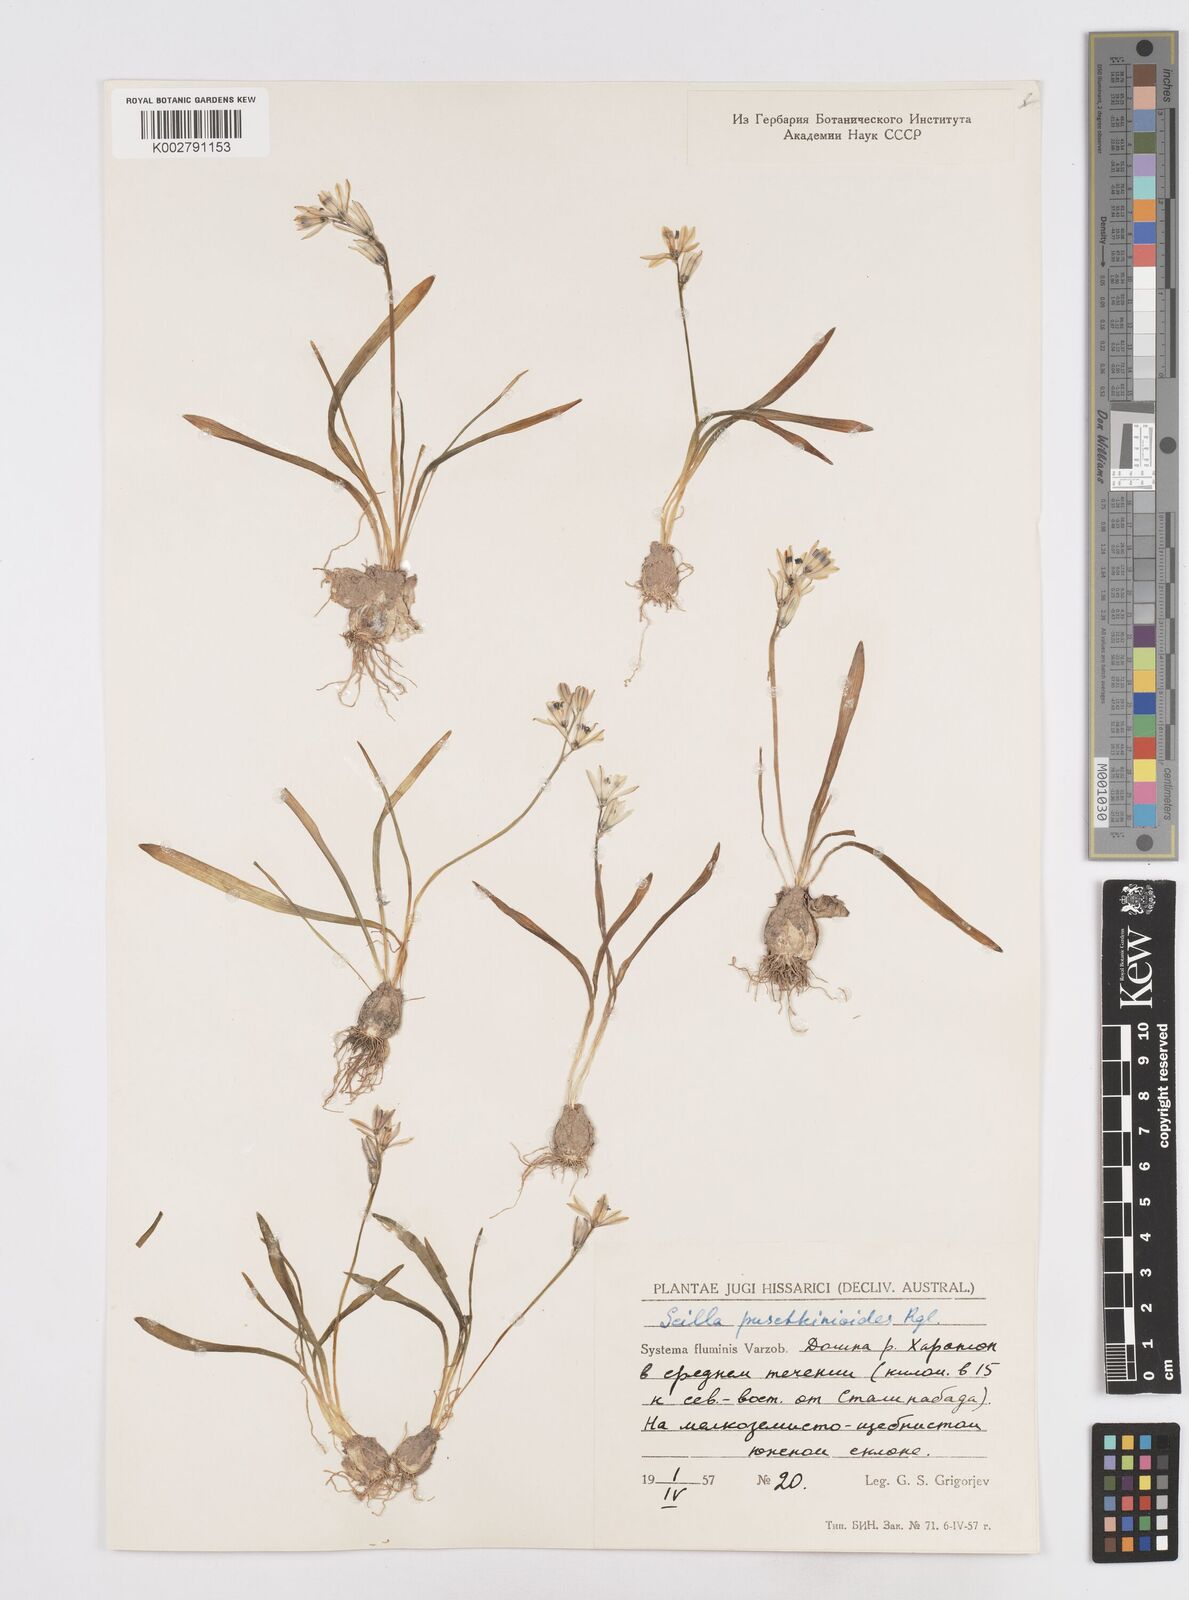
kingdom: Plantae
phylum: Tracheophyta
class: Liliopsida
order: Asparagales
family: Asparagaceae
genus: Fessia
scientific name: Fessia puschkinioides
